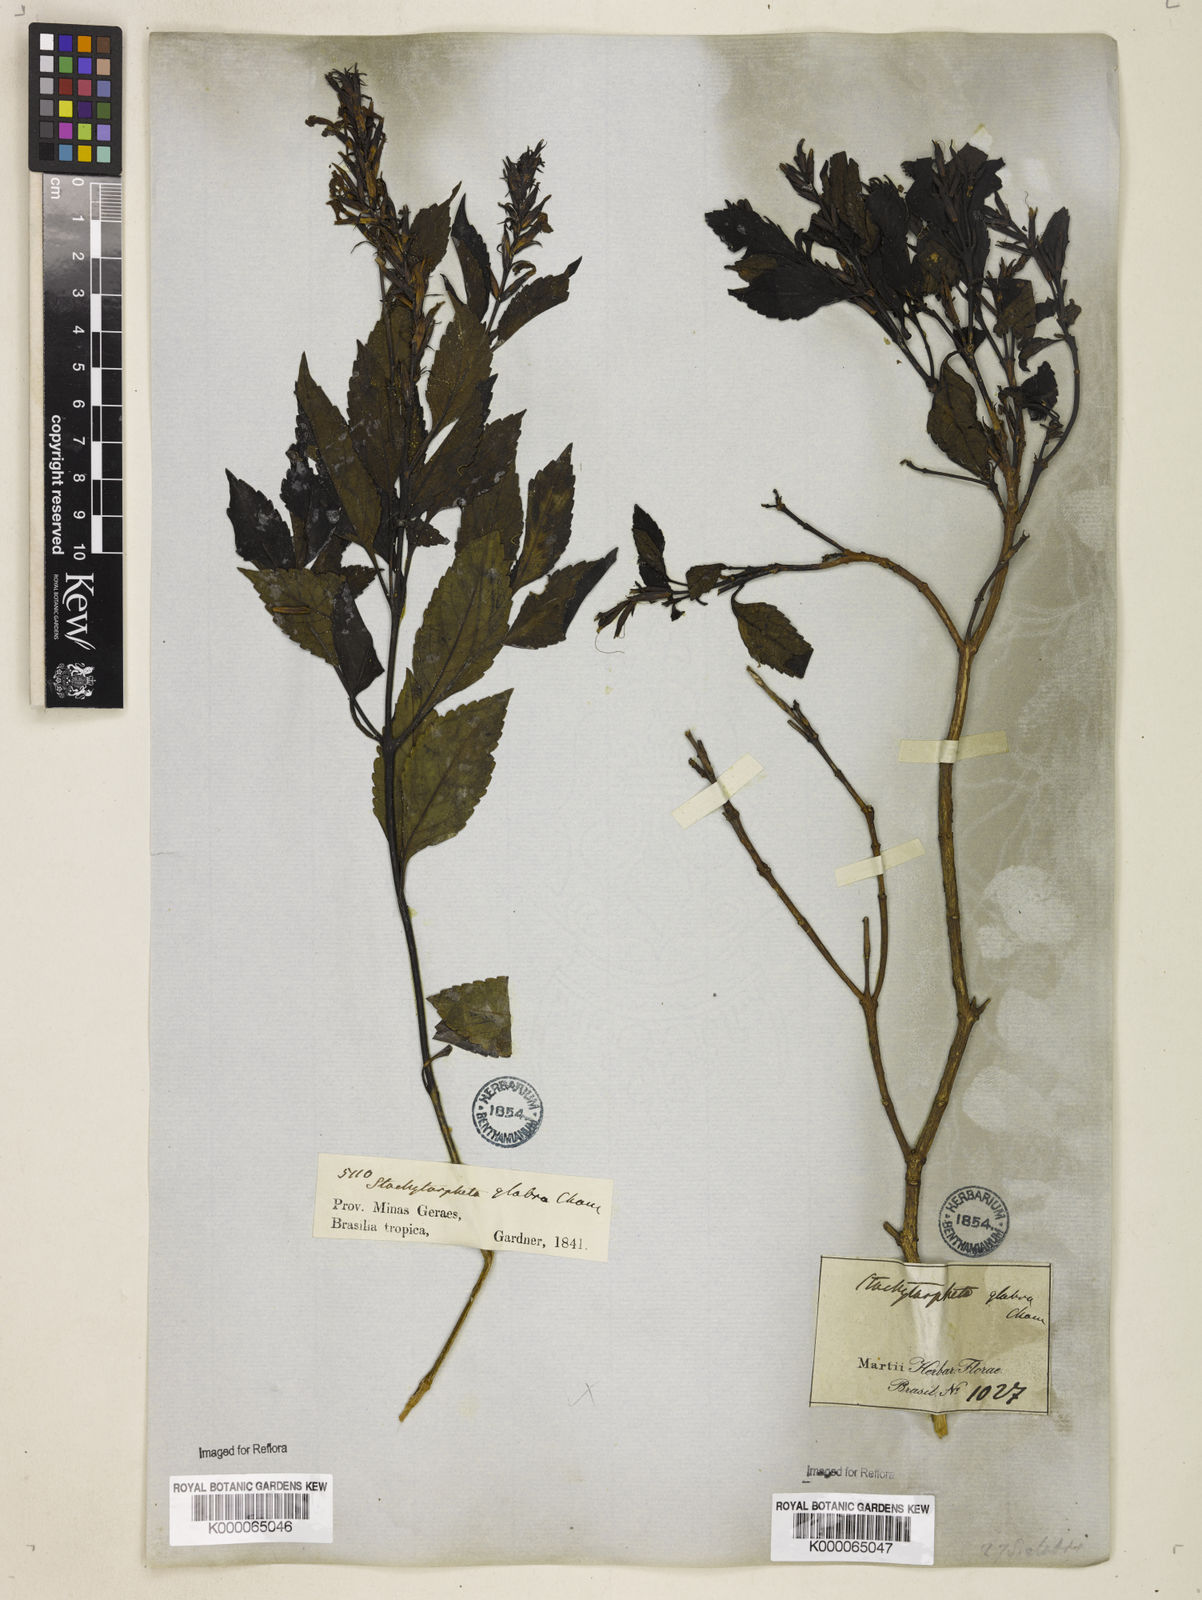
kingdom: Plantae
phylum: Tracheophyta
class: Magnoliopsida
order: Lamiales
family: Verbenaceae
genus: Stachytarpheta
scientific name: Stachytarpheta glabra
